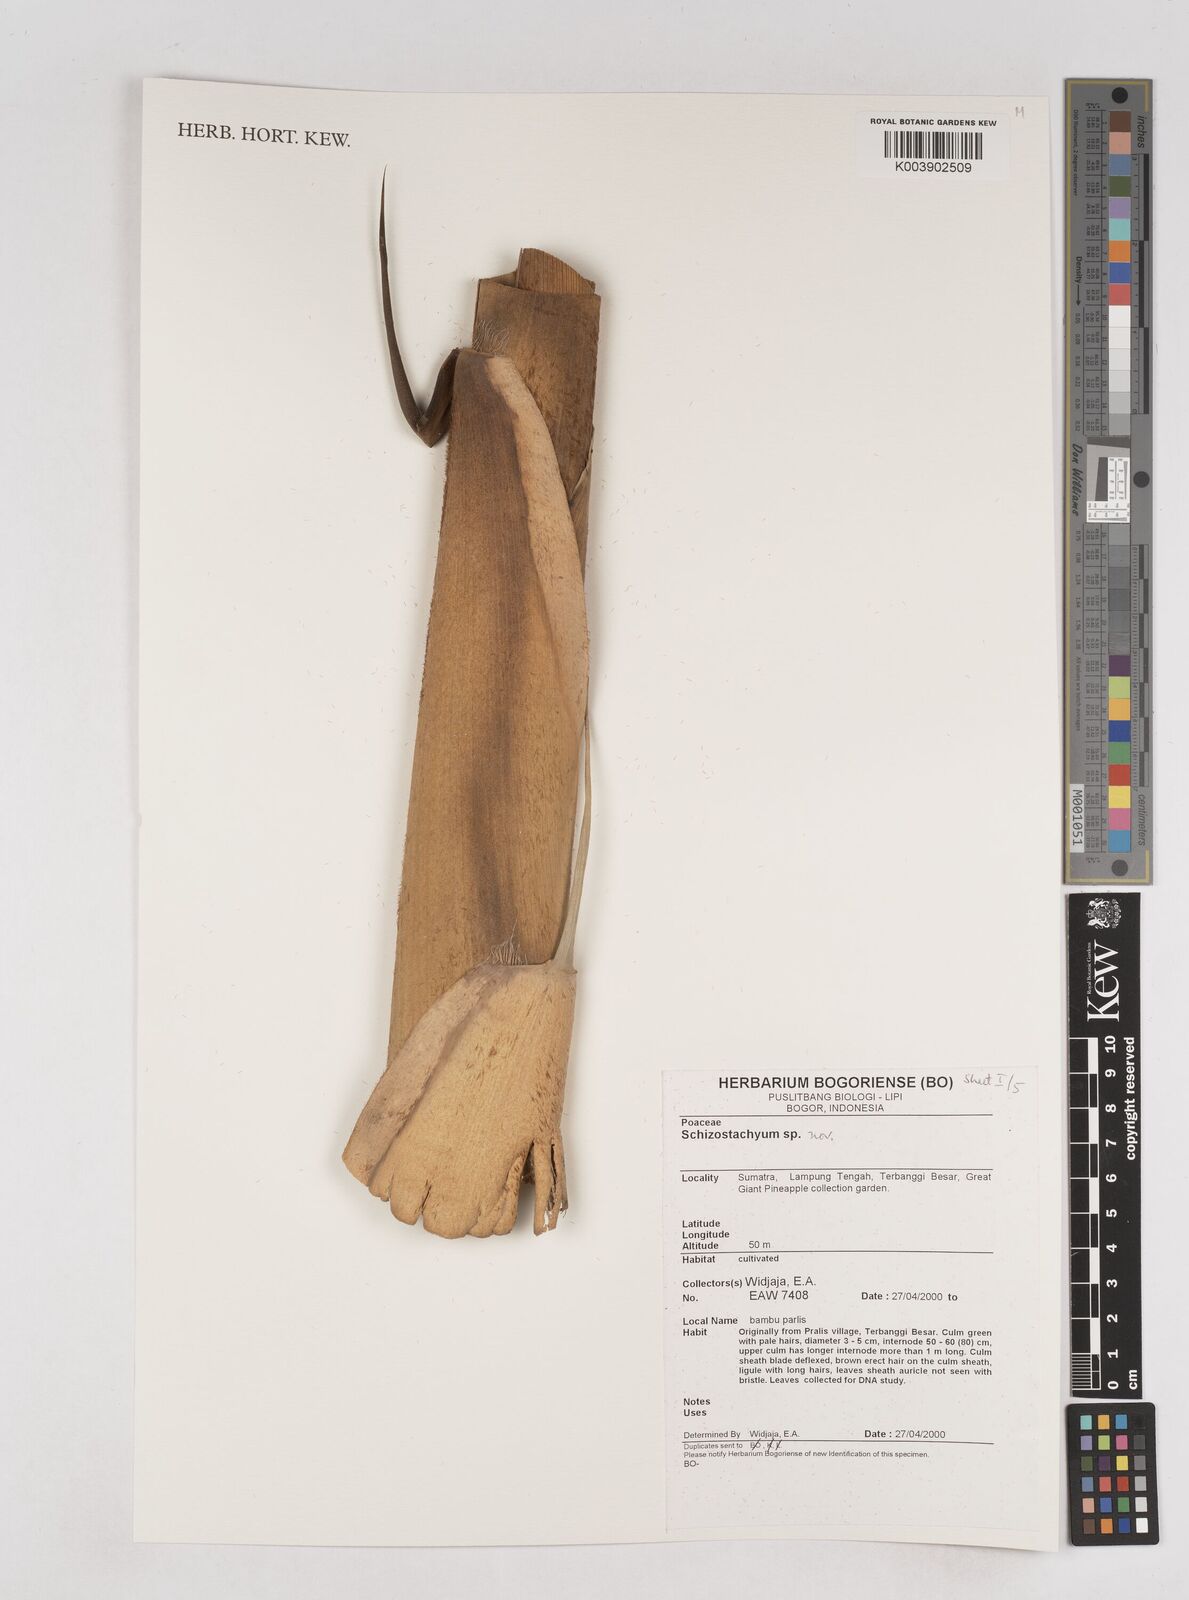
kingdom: Plantae
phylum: Tracheophyta
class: Liliopsida
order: Poales
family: Poaceae
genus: Schizostachyum
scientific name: Schizostachyum
